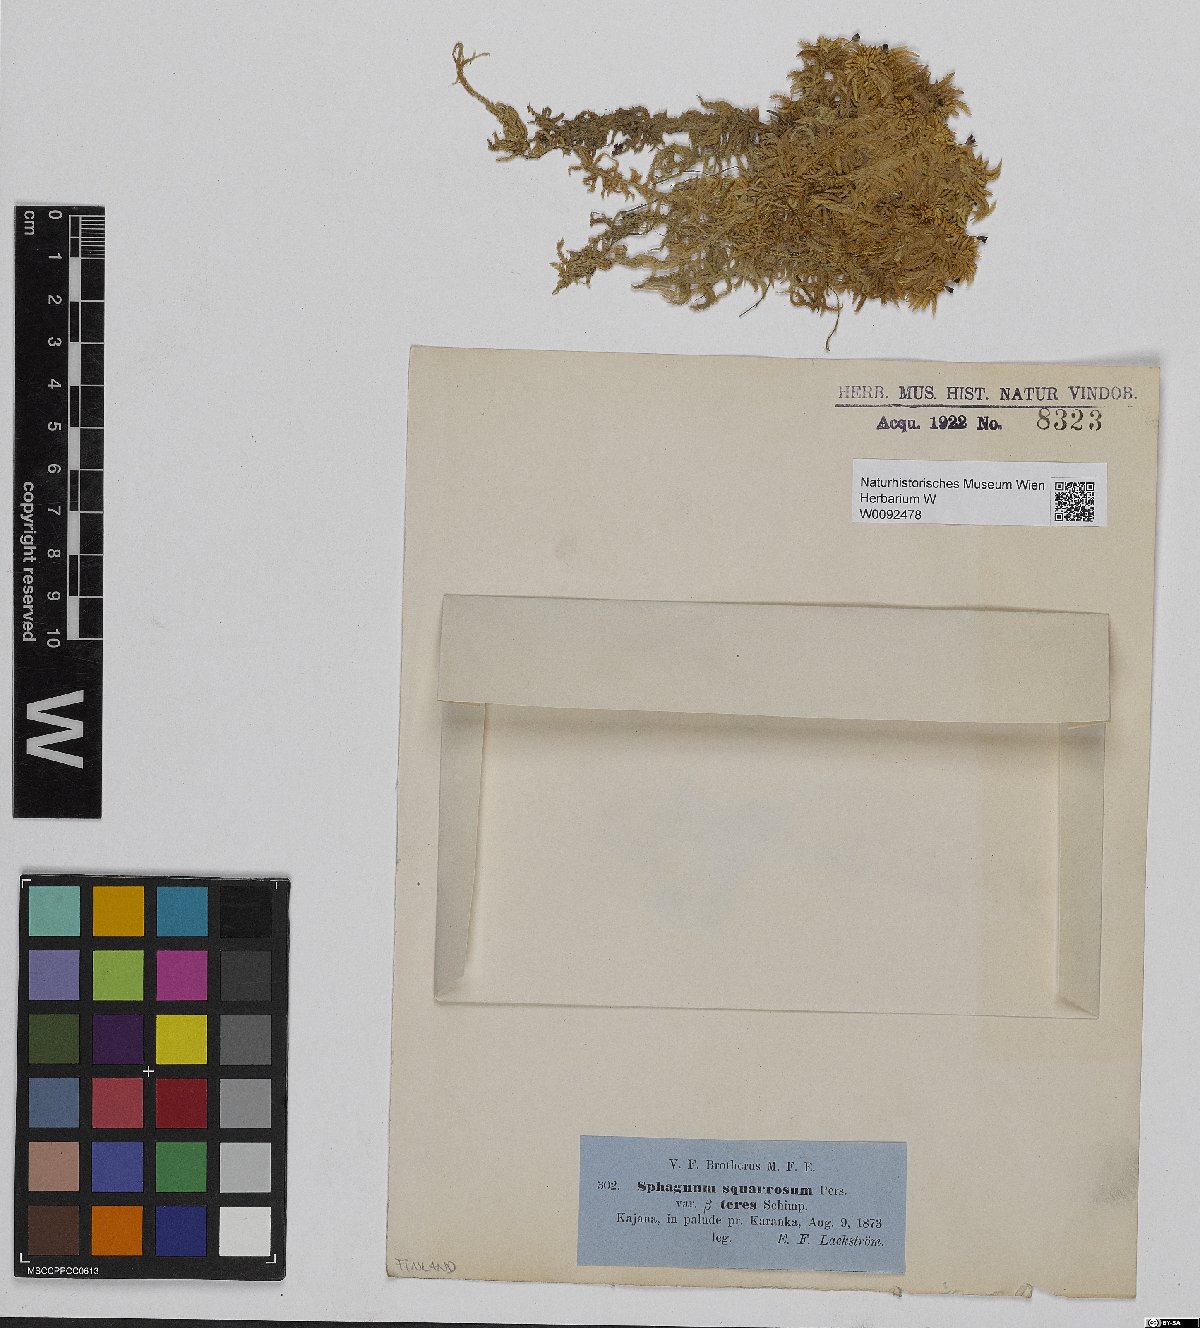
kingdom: Plantae
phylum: Bryophyta
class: Sphagnopsida
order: Sphagnales
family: Sphagnaceae
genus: Sphagnum
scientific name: Sphagnum teres
